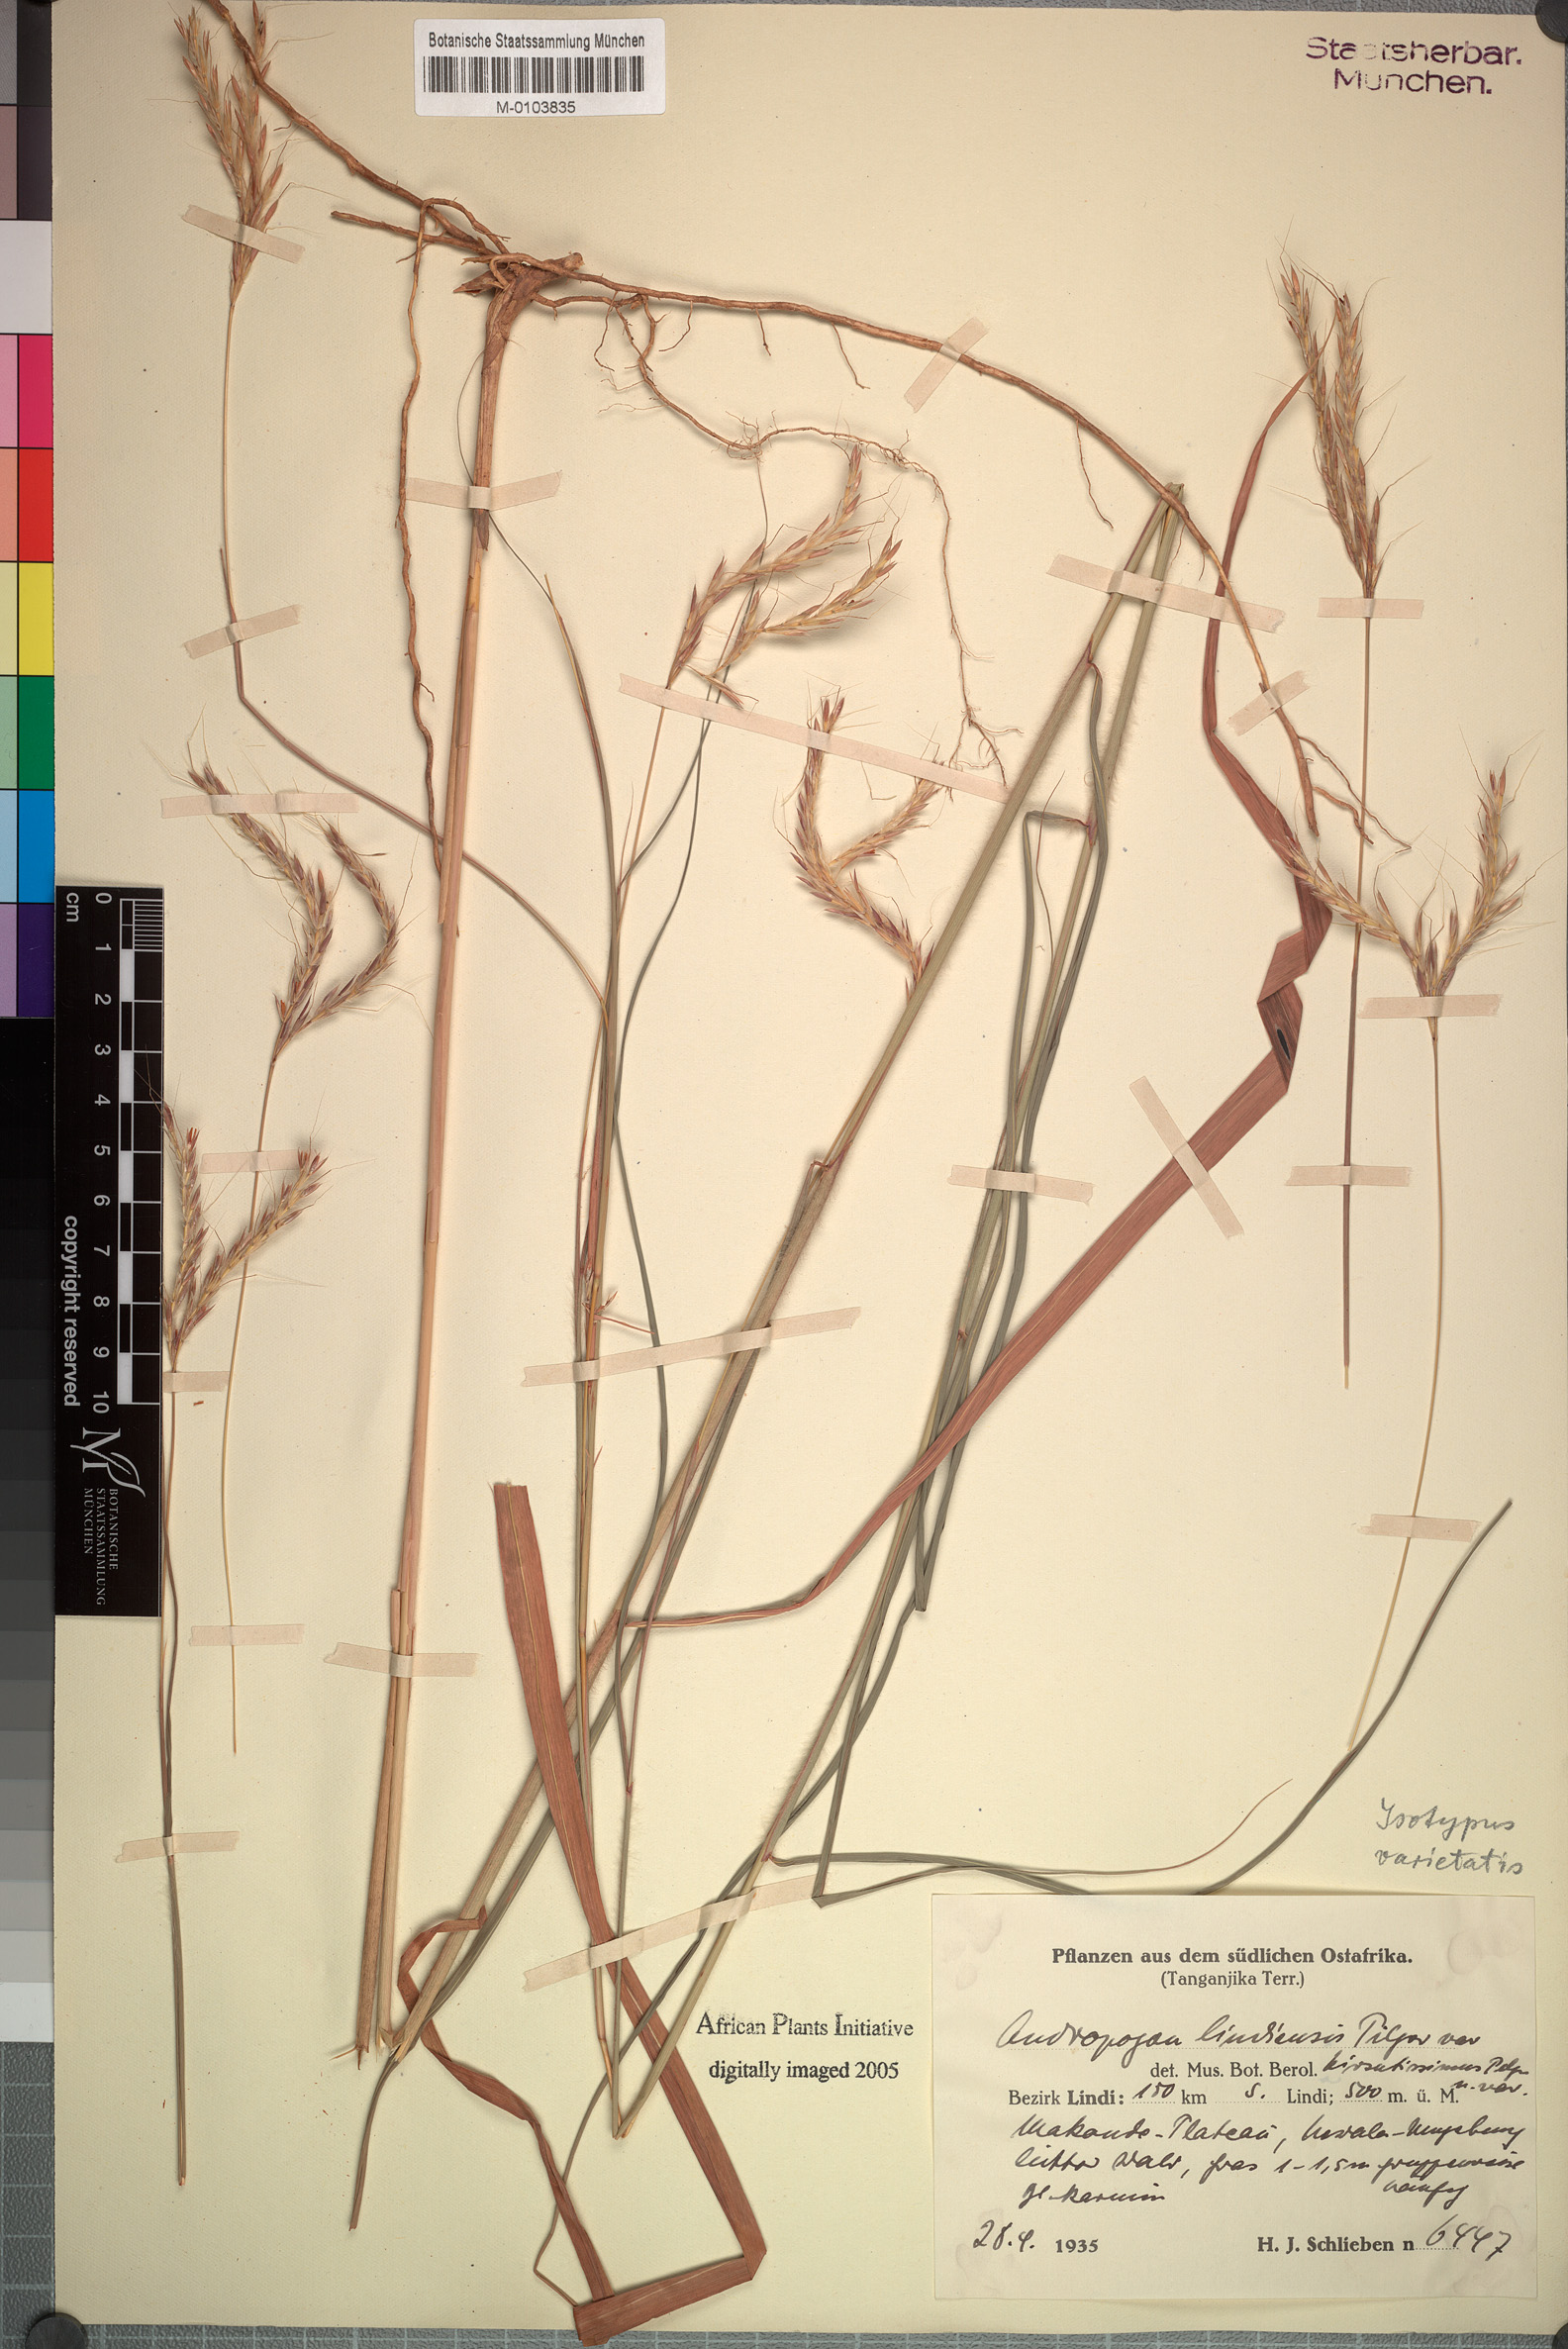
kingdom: Plantae
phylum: Tracheophyta
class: Liliopsida
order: Poales
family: Poaceae
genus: Andropogon
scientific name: Andropogon chinensis
